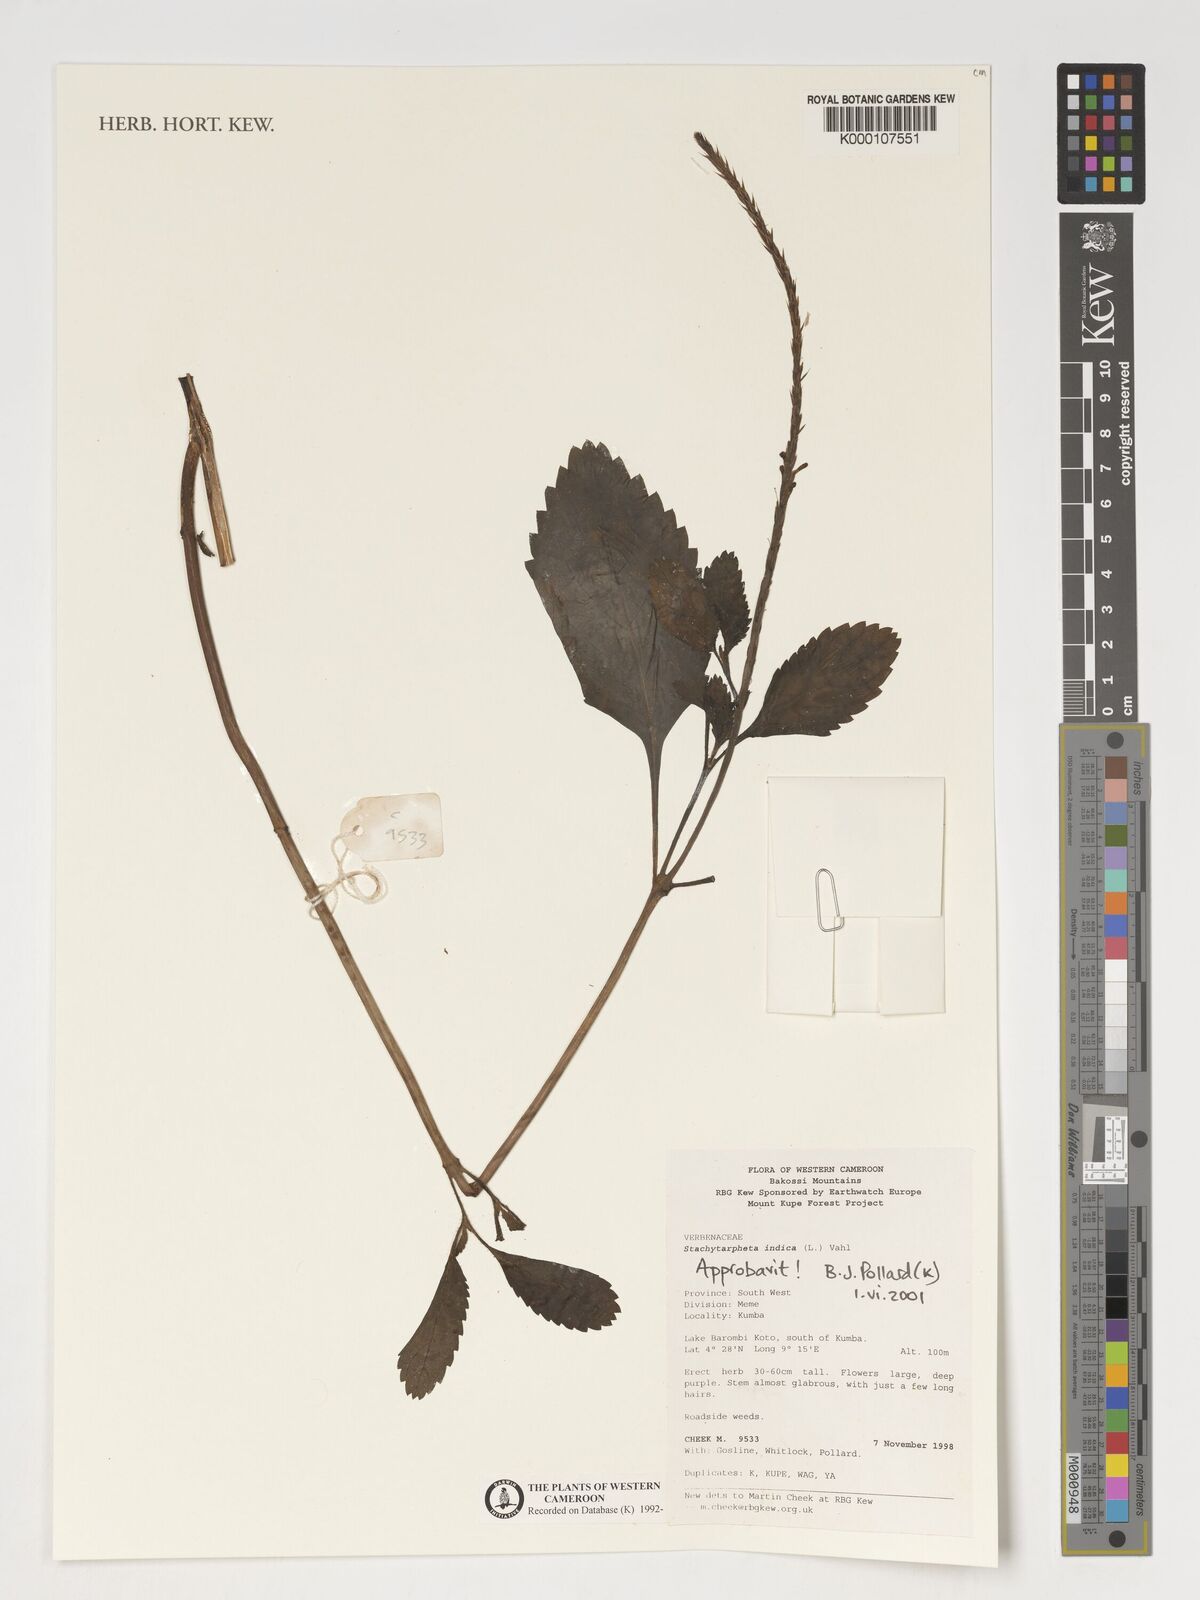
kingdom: Plantae
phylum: Tracheophyta
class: Magnoliopsida
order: Lamiales
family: Verbenaceae
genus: Stachytarpheta
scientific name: Stachytarpheta indica
